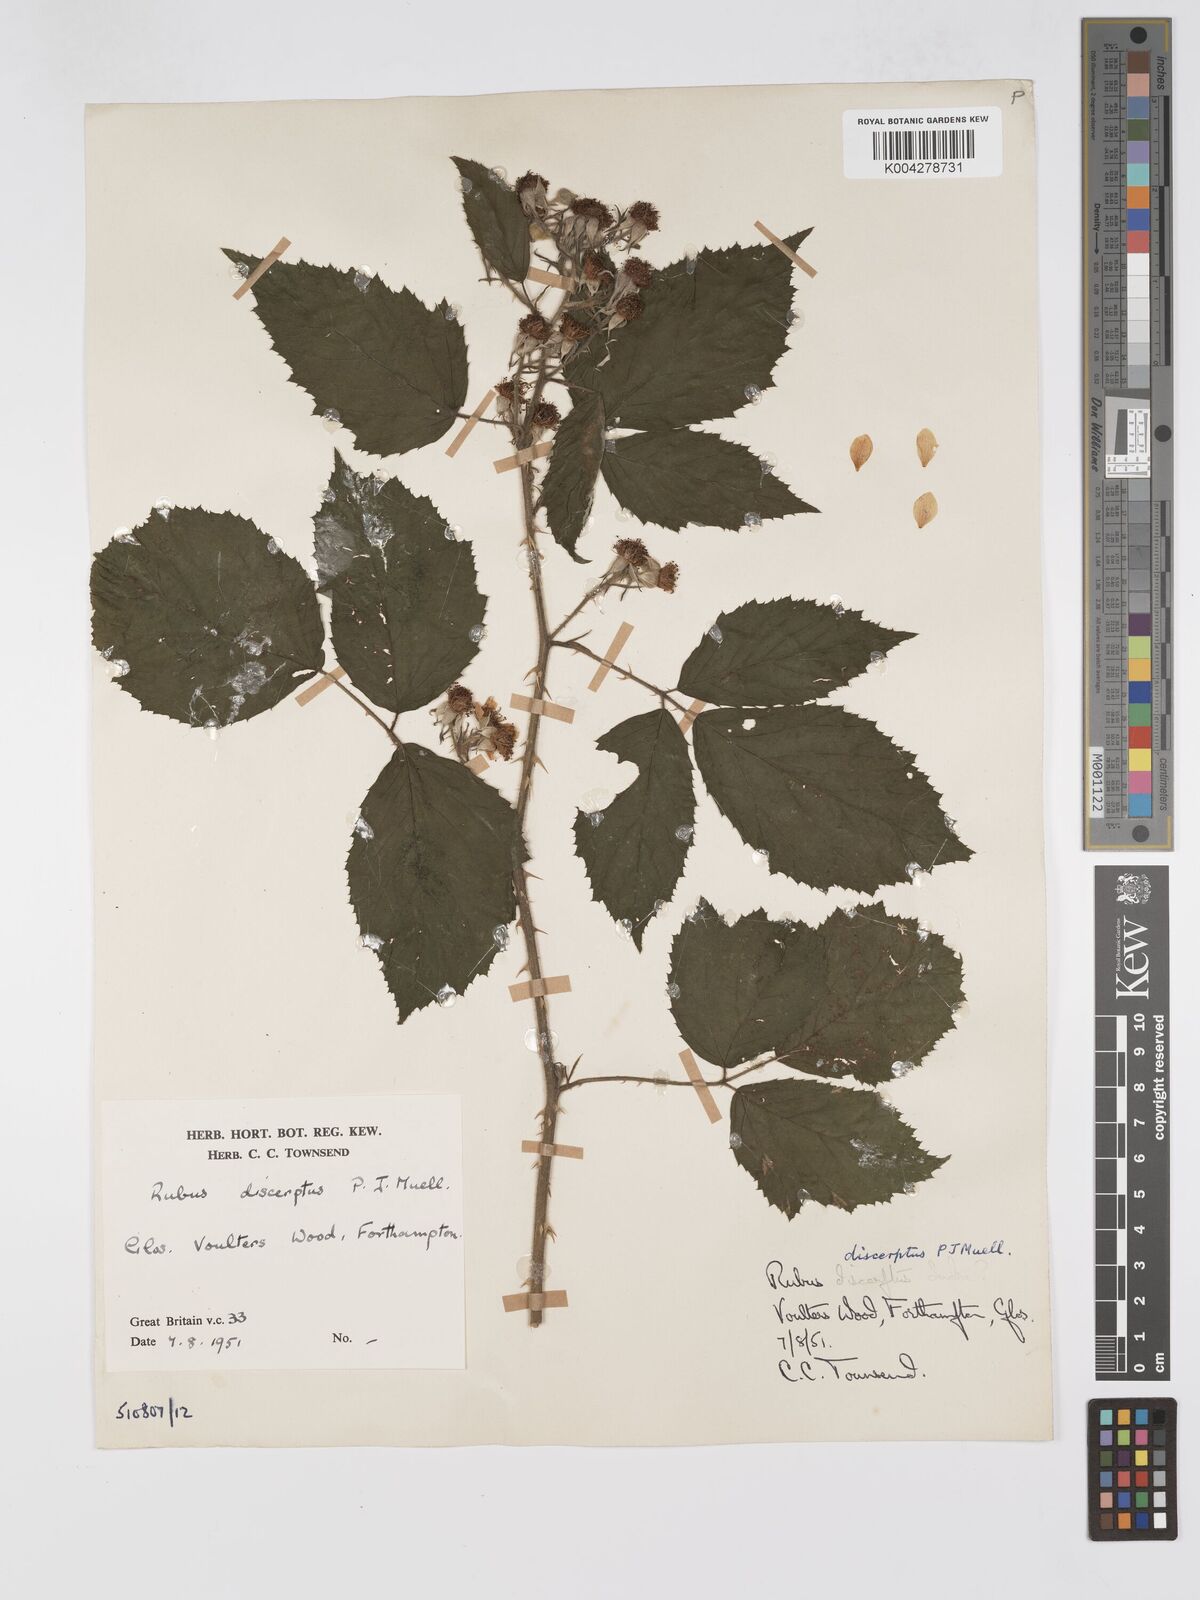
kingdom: Plantae
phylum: Tracheophyta
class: Magnoliopsida
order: Rosales
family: Rosaceae
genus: Rubus
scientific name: Rubus echinatus
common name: Echinate bramble
